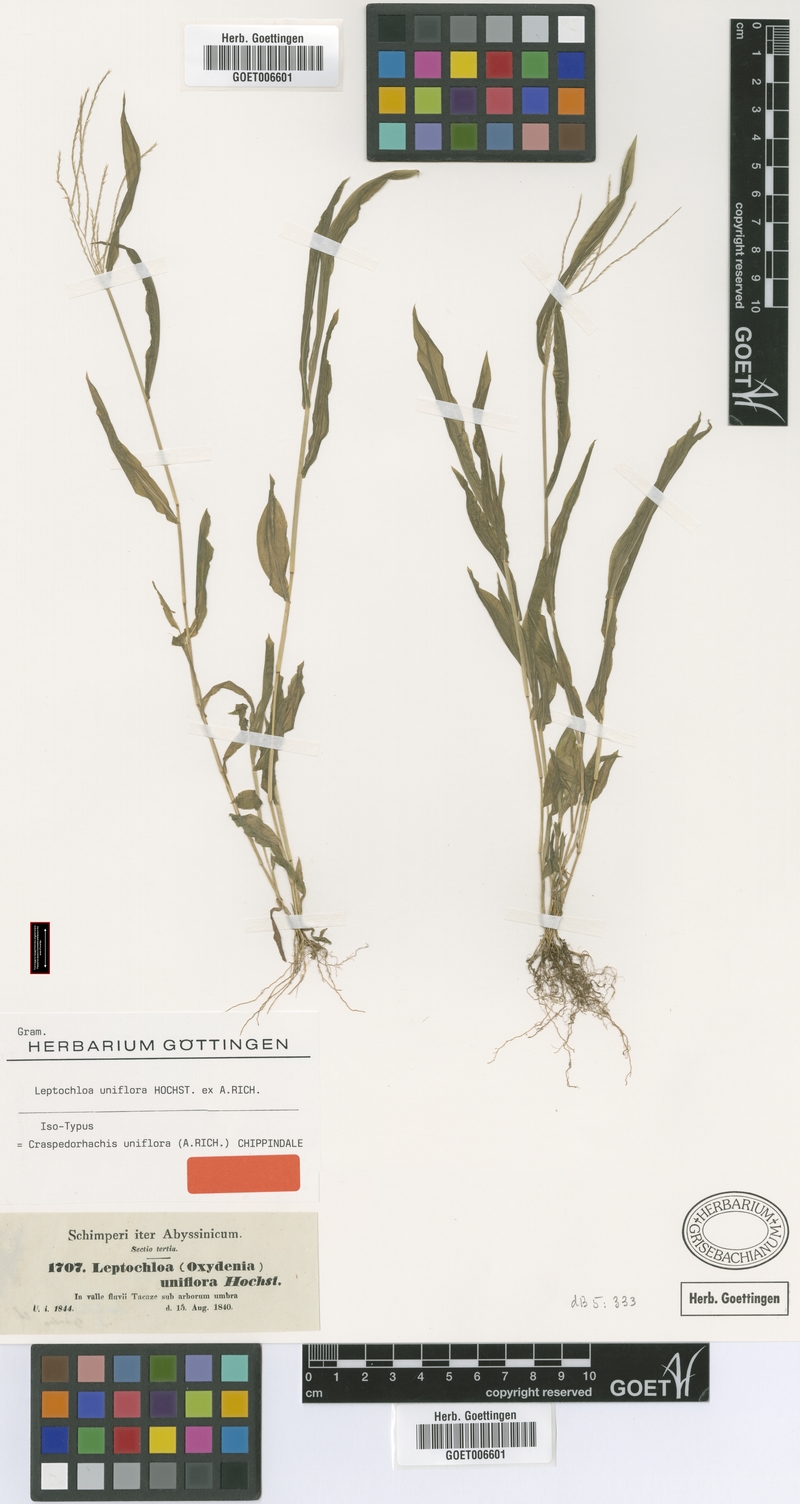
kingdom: Plantae
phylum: Tracheophyta
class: Liliopsida
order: Poales
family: Poaceae
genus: Trigonochloa
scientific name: Trigonochloa uniflora
